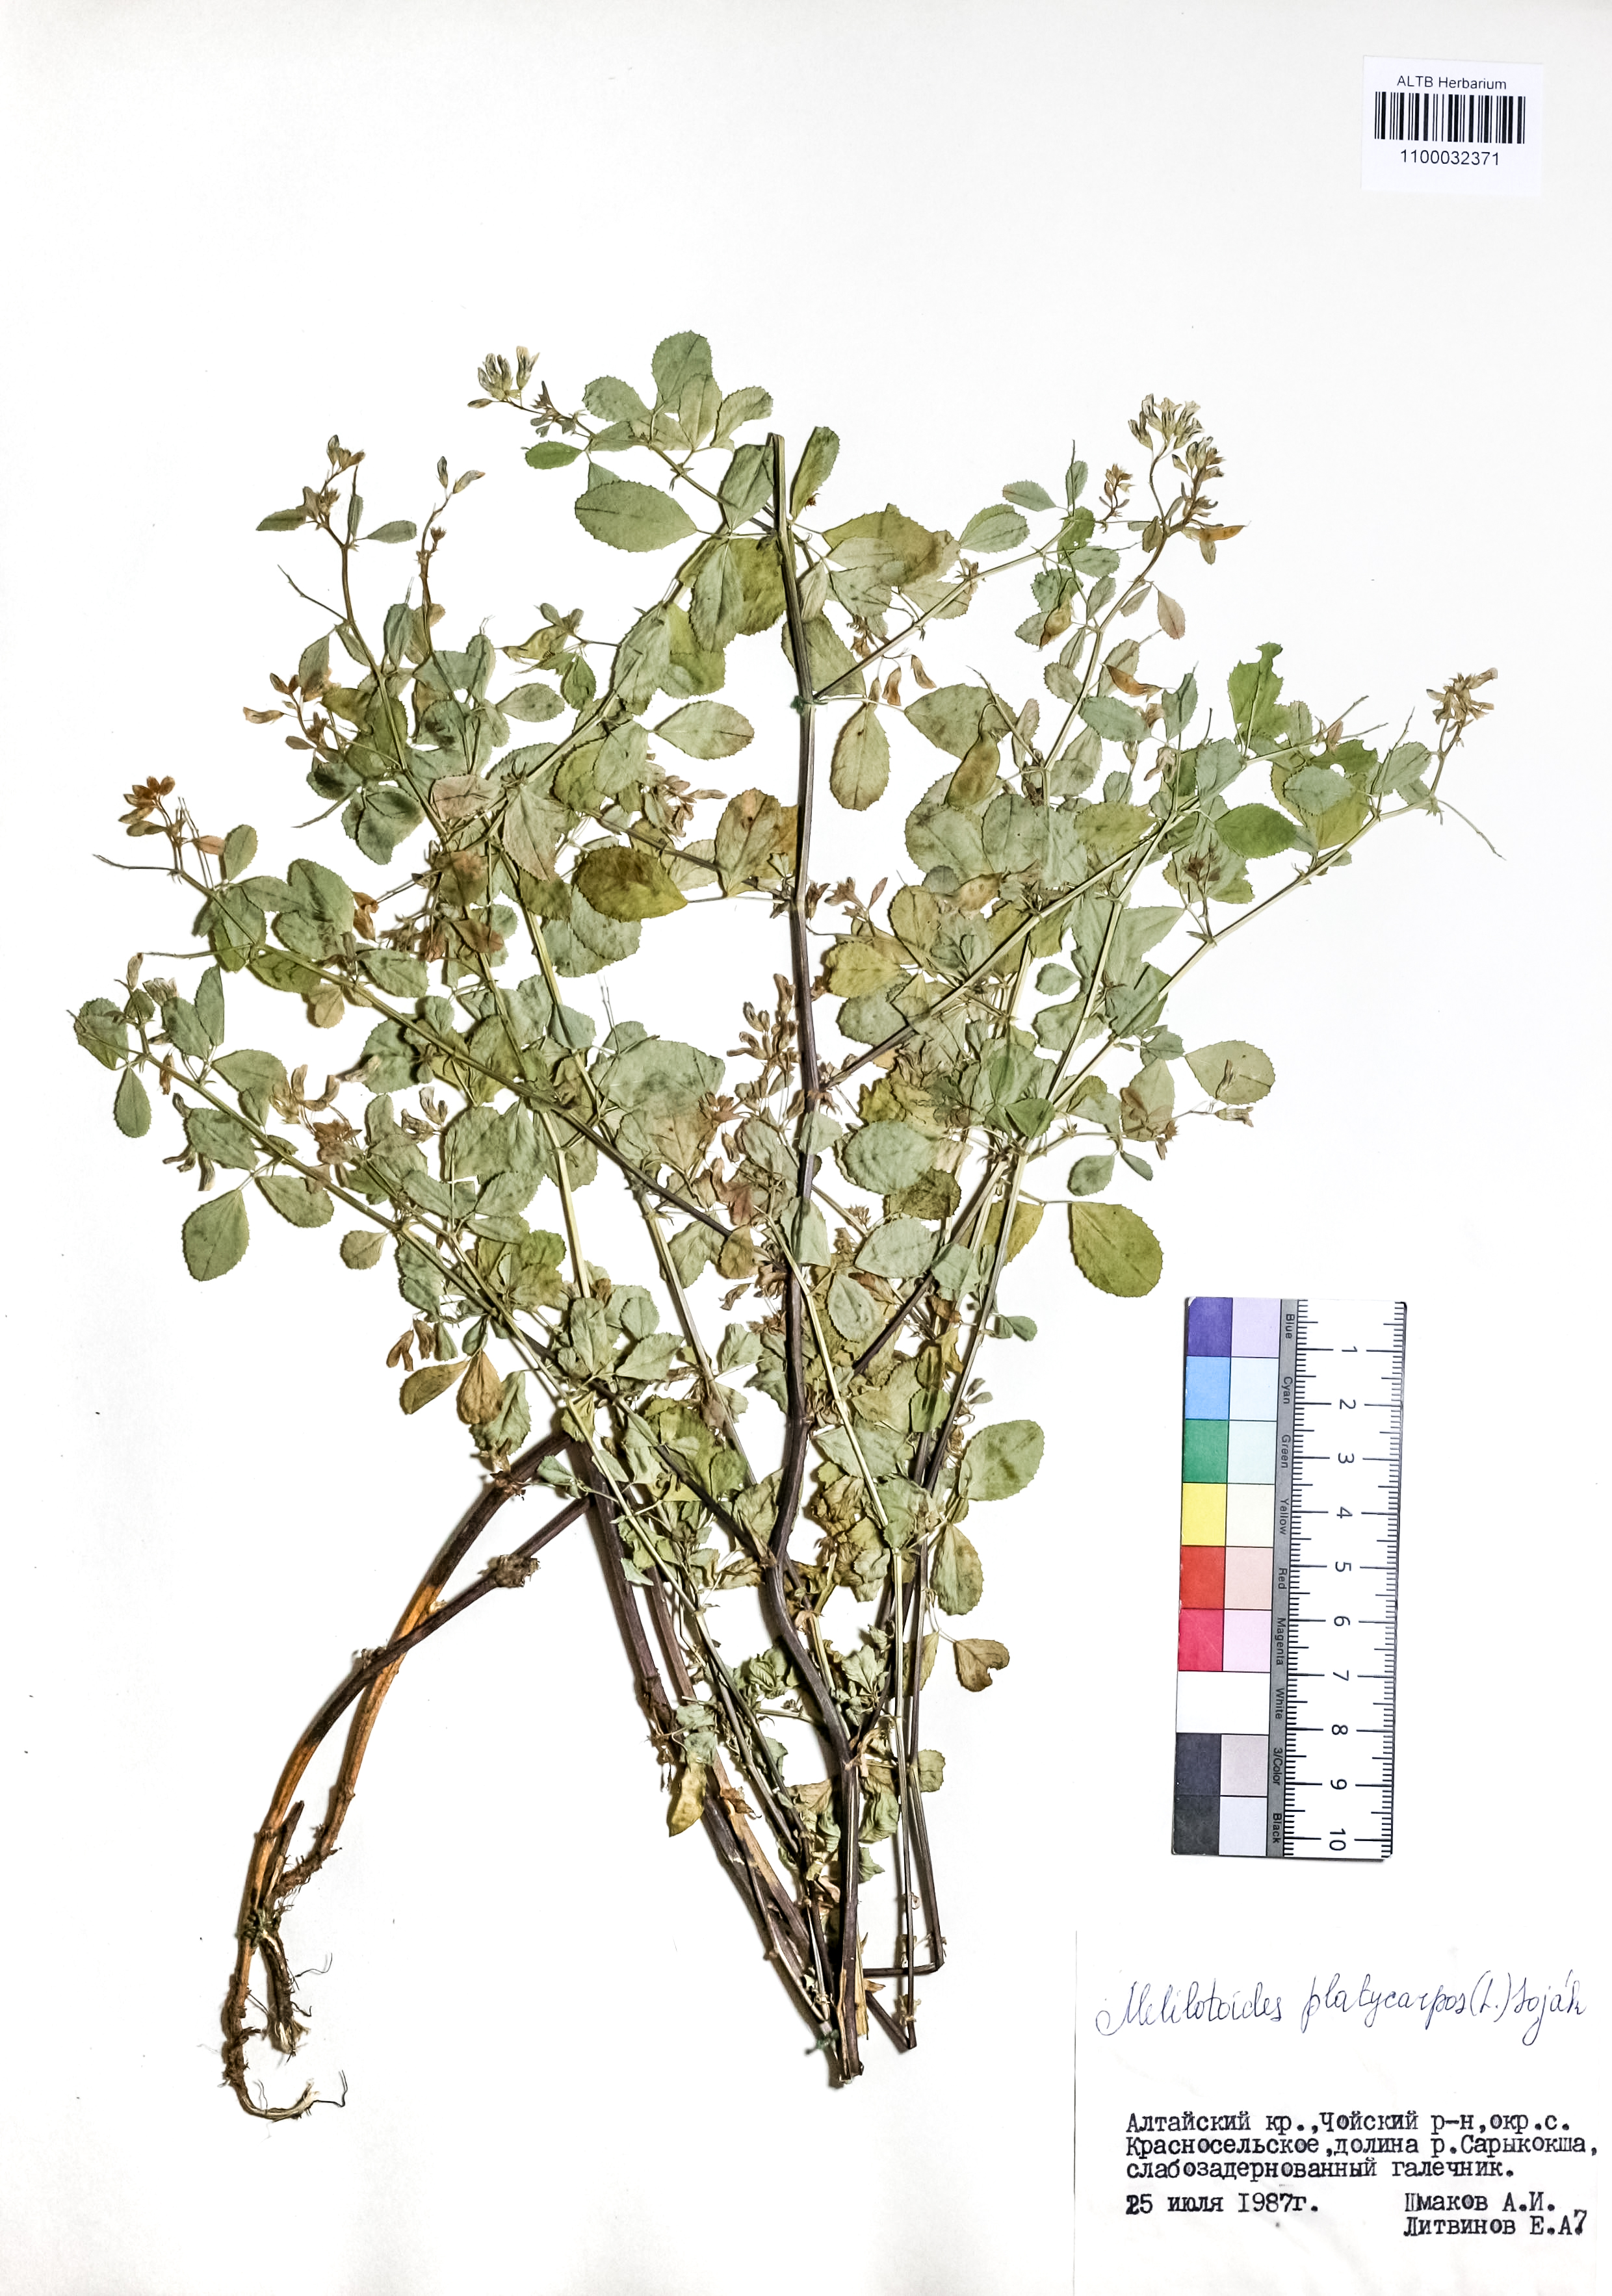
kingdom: Plantae
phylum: Tracheophyta
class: Magnoliopsida
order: Fabales
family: Fabaceae
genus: Medicago
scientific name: Medicago platycarpos
